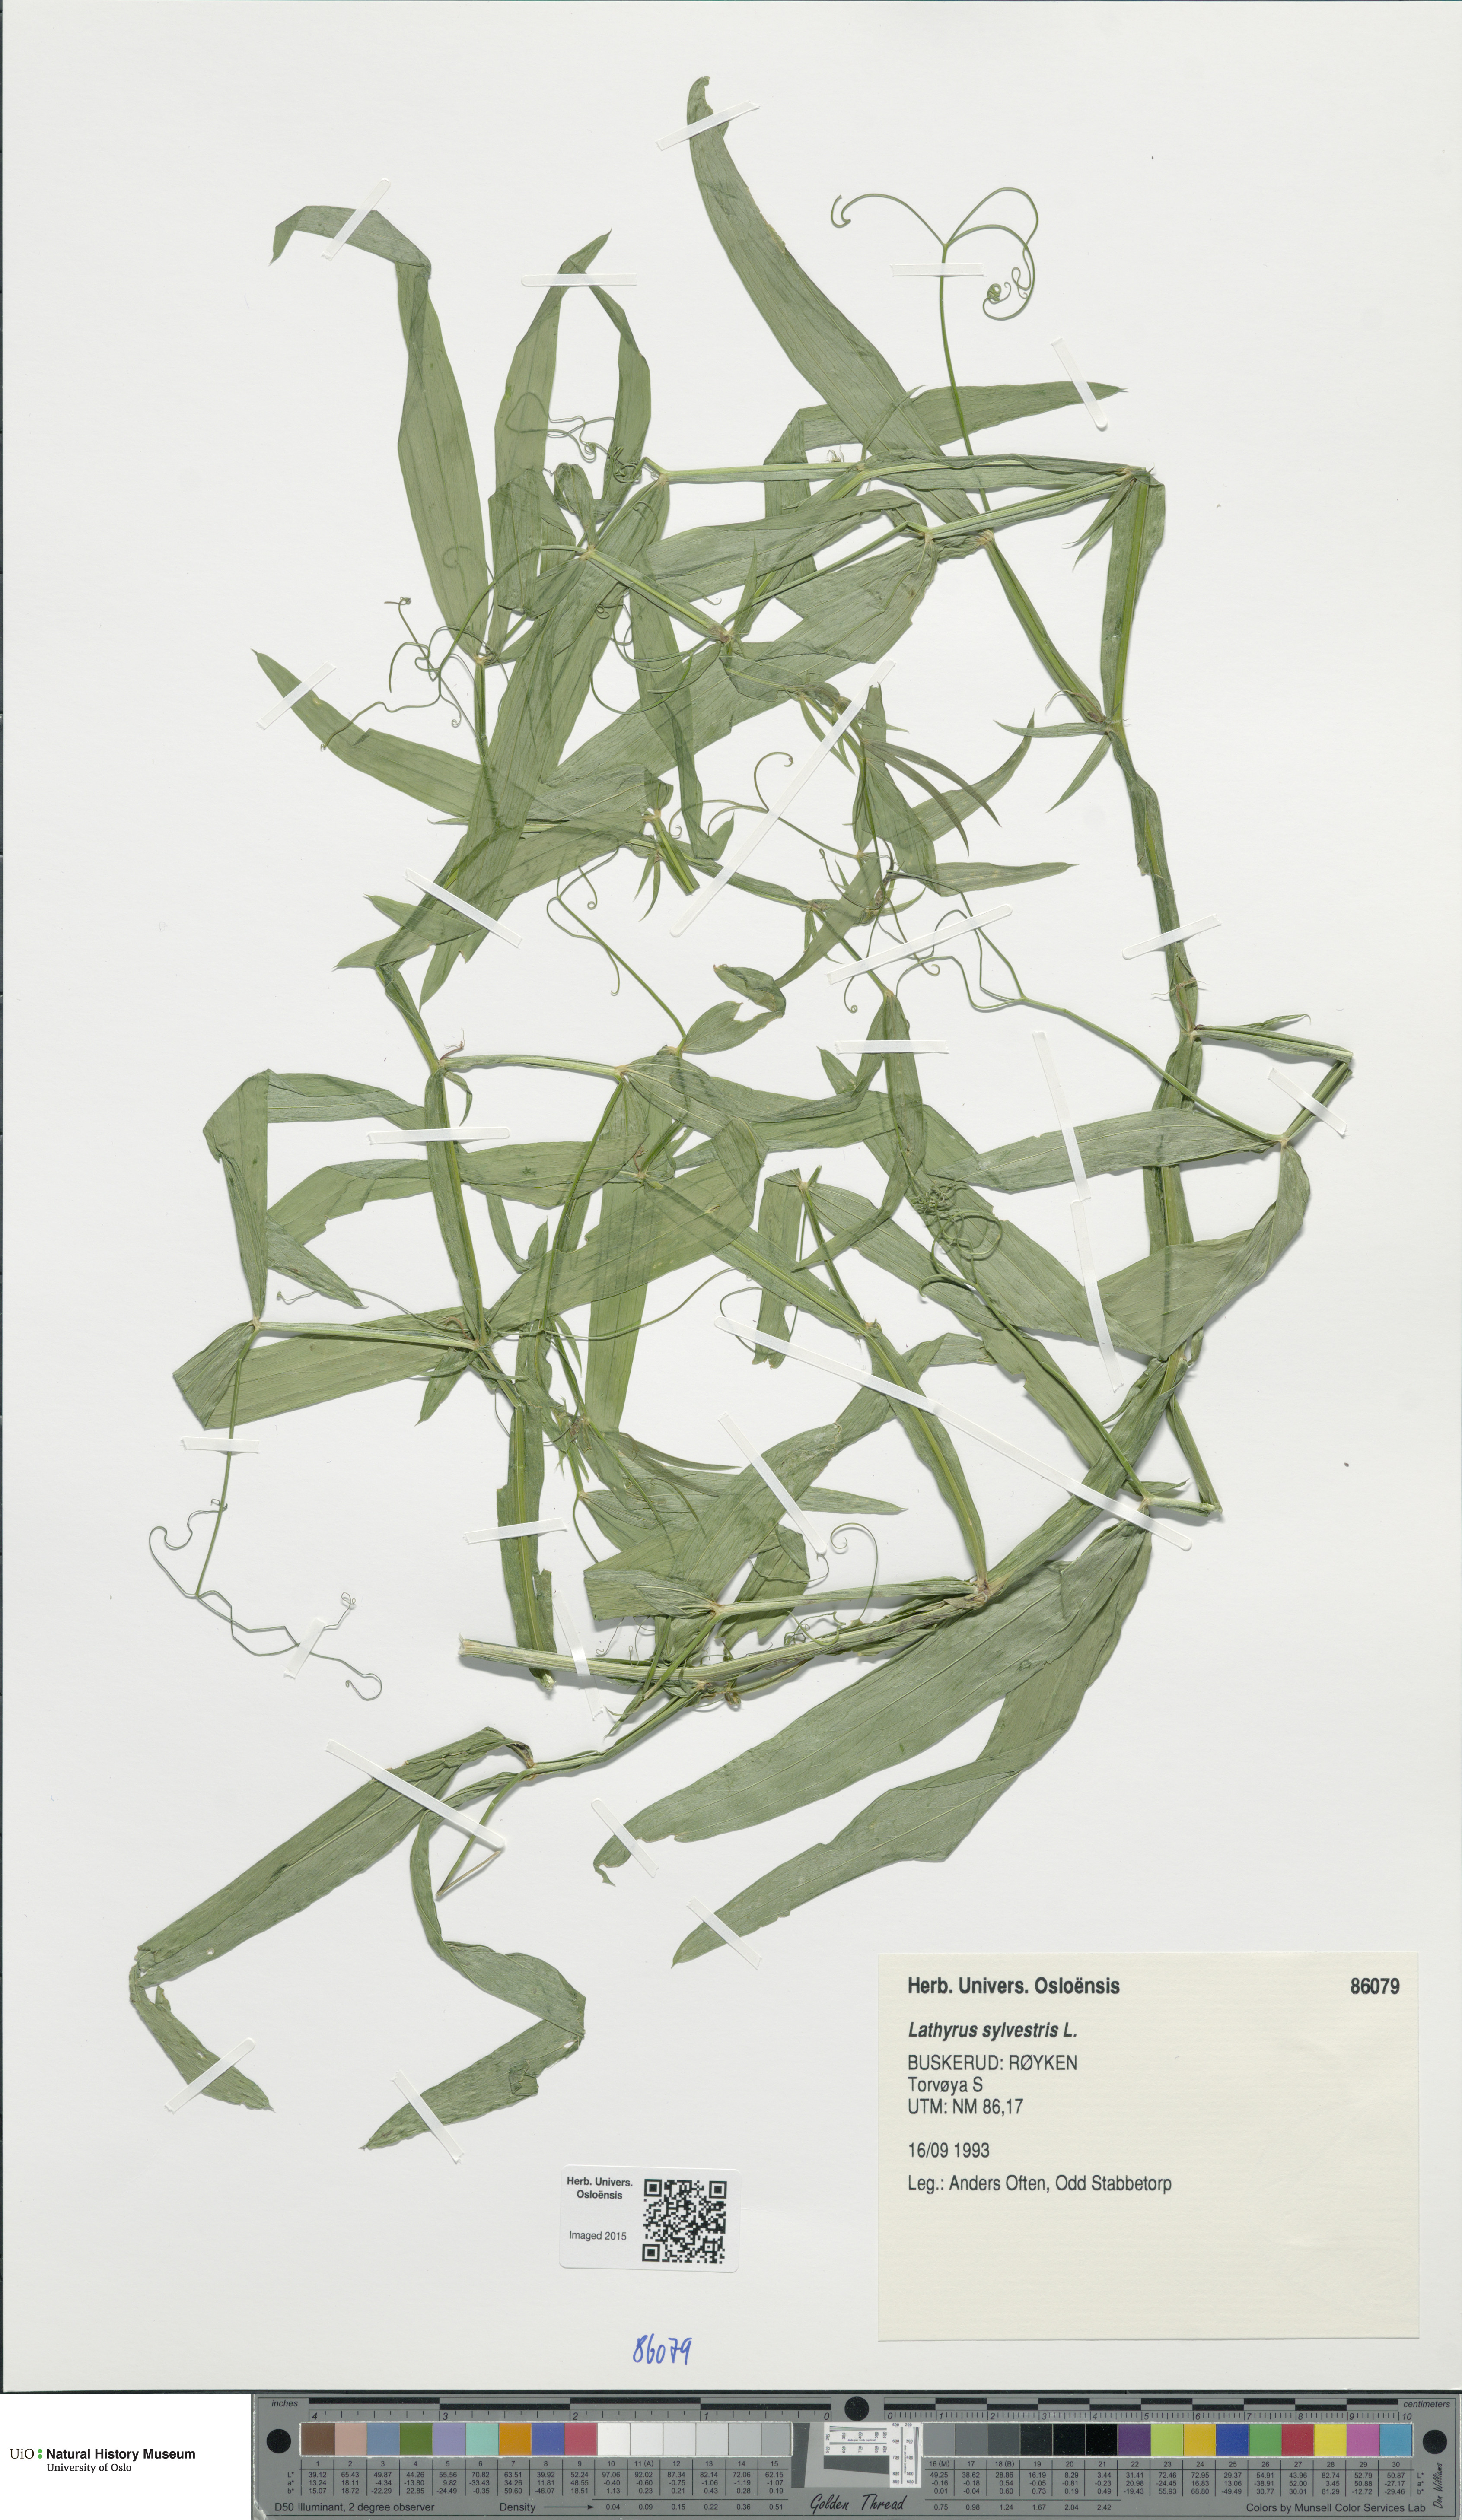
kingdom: Plantae
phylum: Tracheophyta
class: Magnoliopsida
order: Fabales
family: Fabaceae
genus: Lathyrus
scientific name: Lathyrus sylvestris
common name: Flat pea
